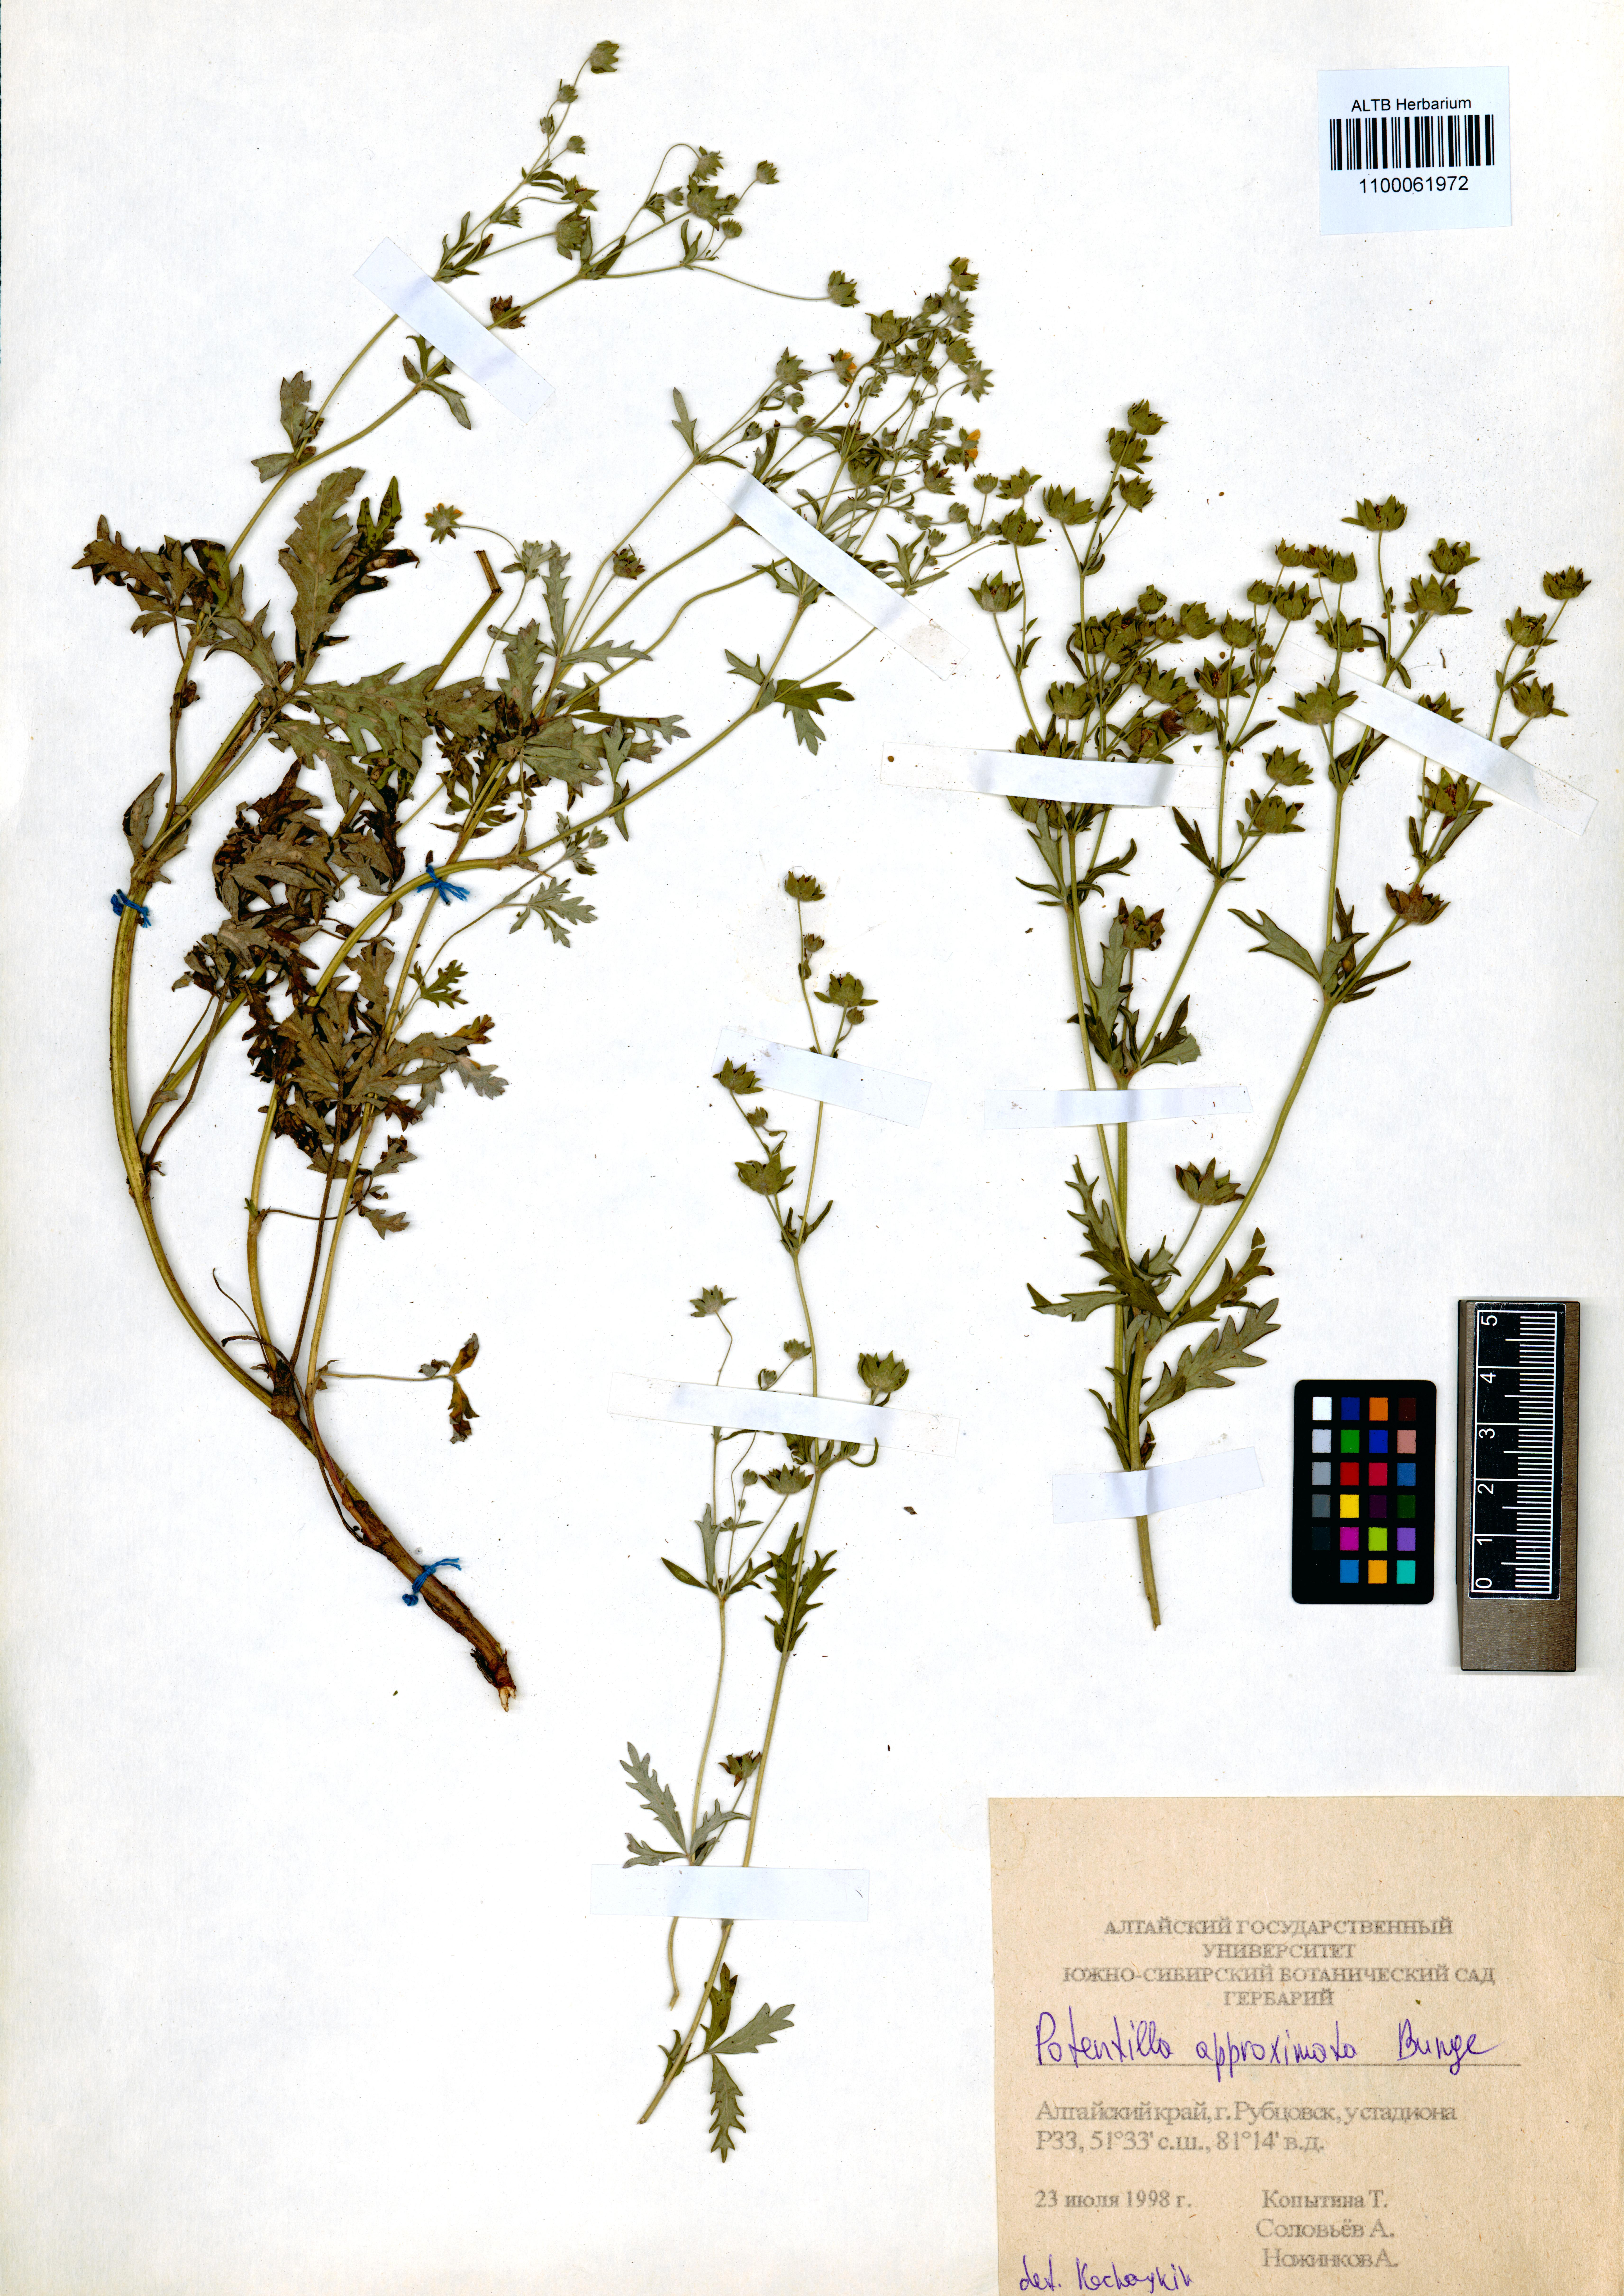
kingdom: Plantae
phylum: Tracheophyta
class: Magnoliopsida
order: Rosales
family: Rosaceae
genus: Potentilla
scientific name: Potentilla conferta
